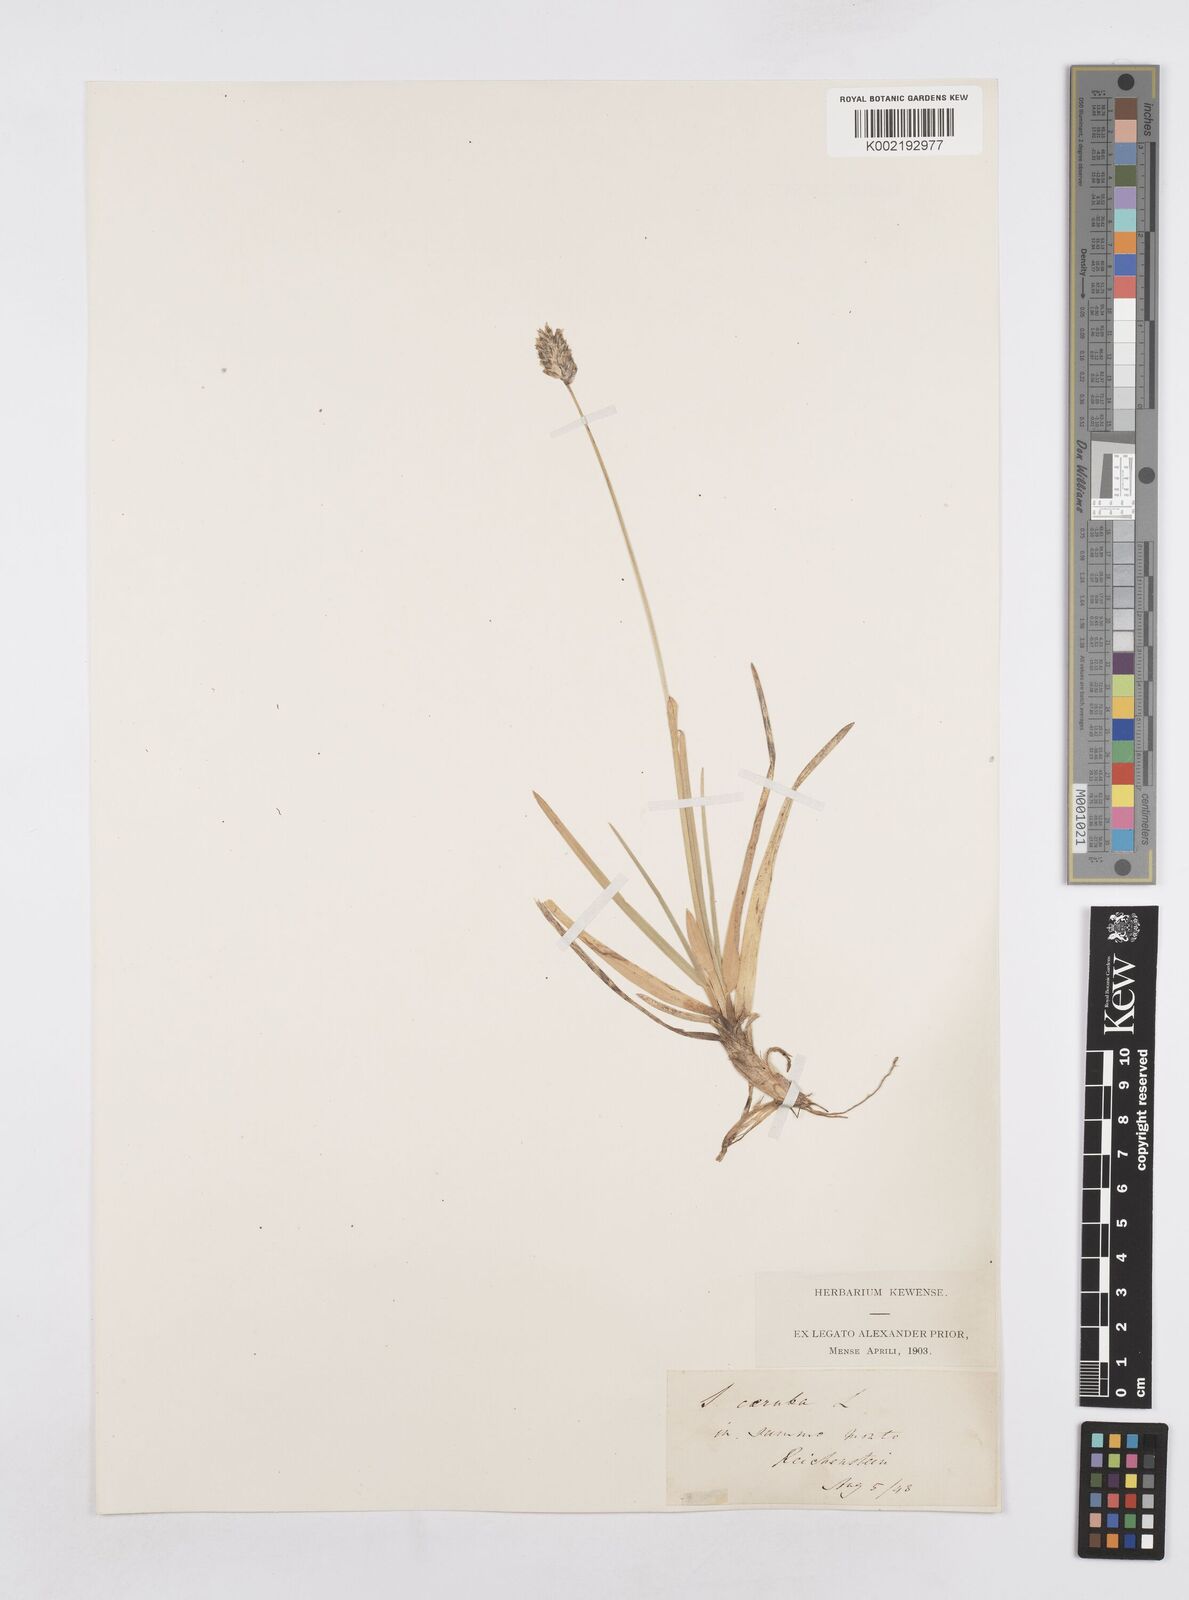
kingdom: Plantae
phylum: Tracheophyta
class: Liliopsida
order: Poales
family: Poaceae
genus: Sesleria
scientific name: Sesleria caerulea
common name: Blue moor-grass
